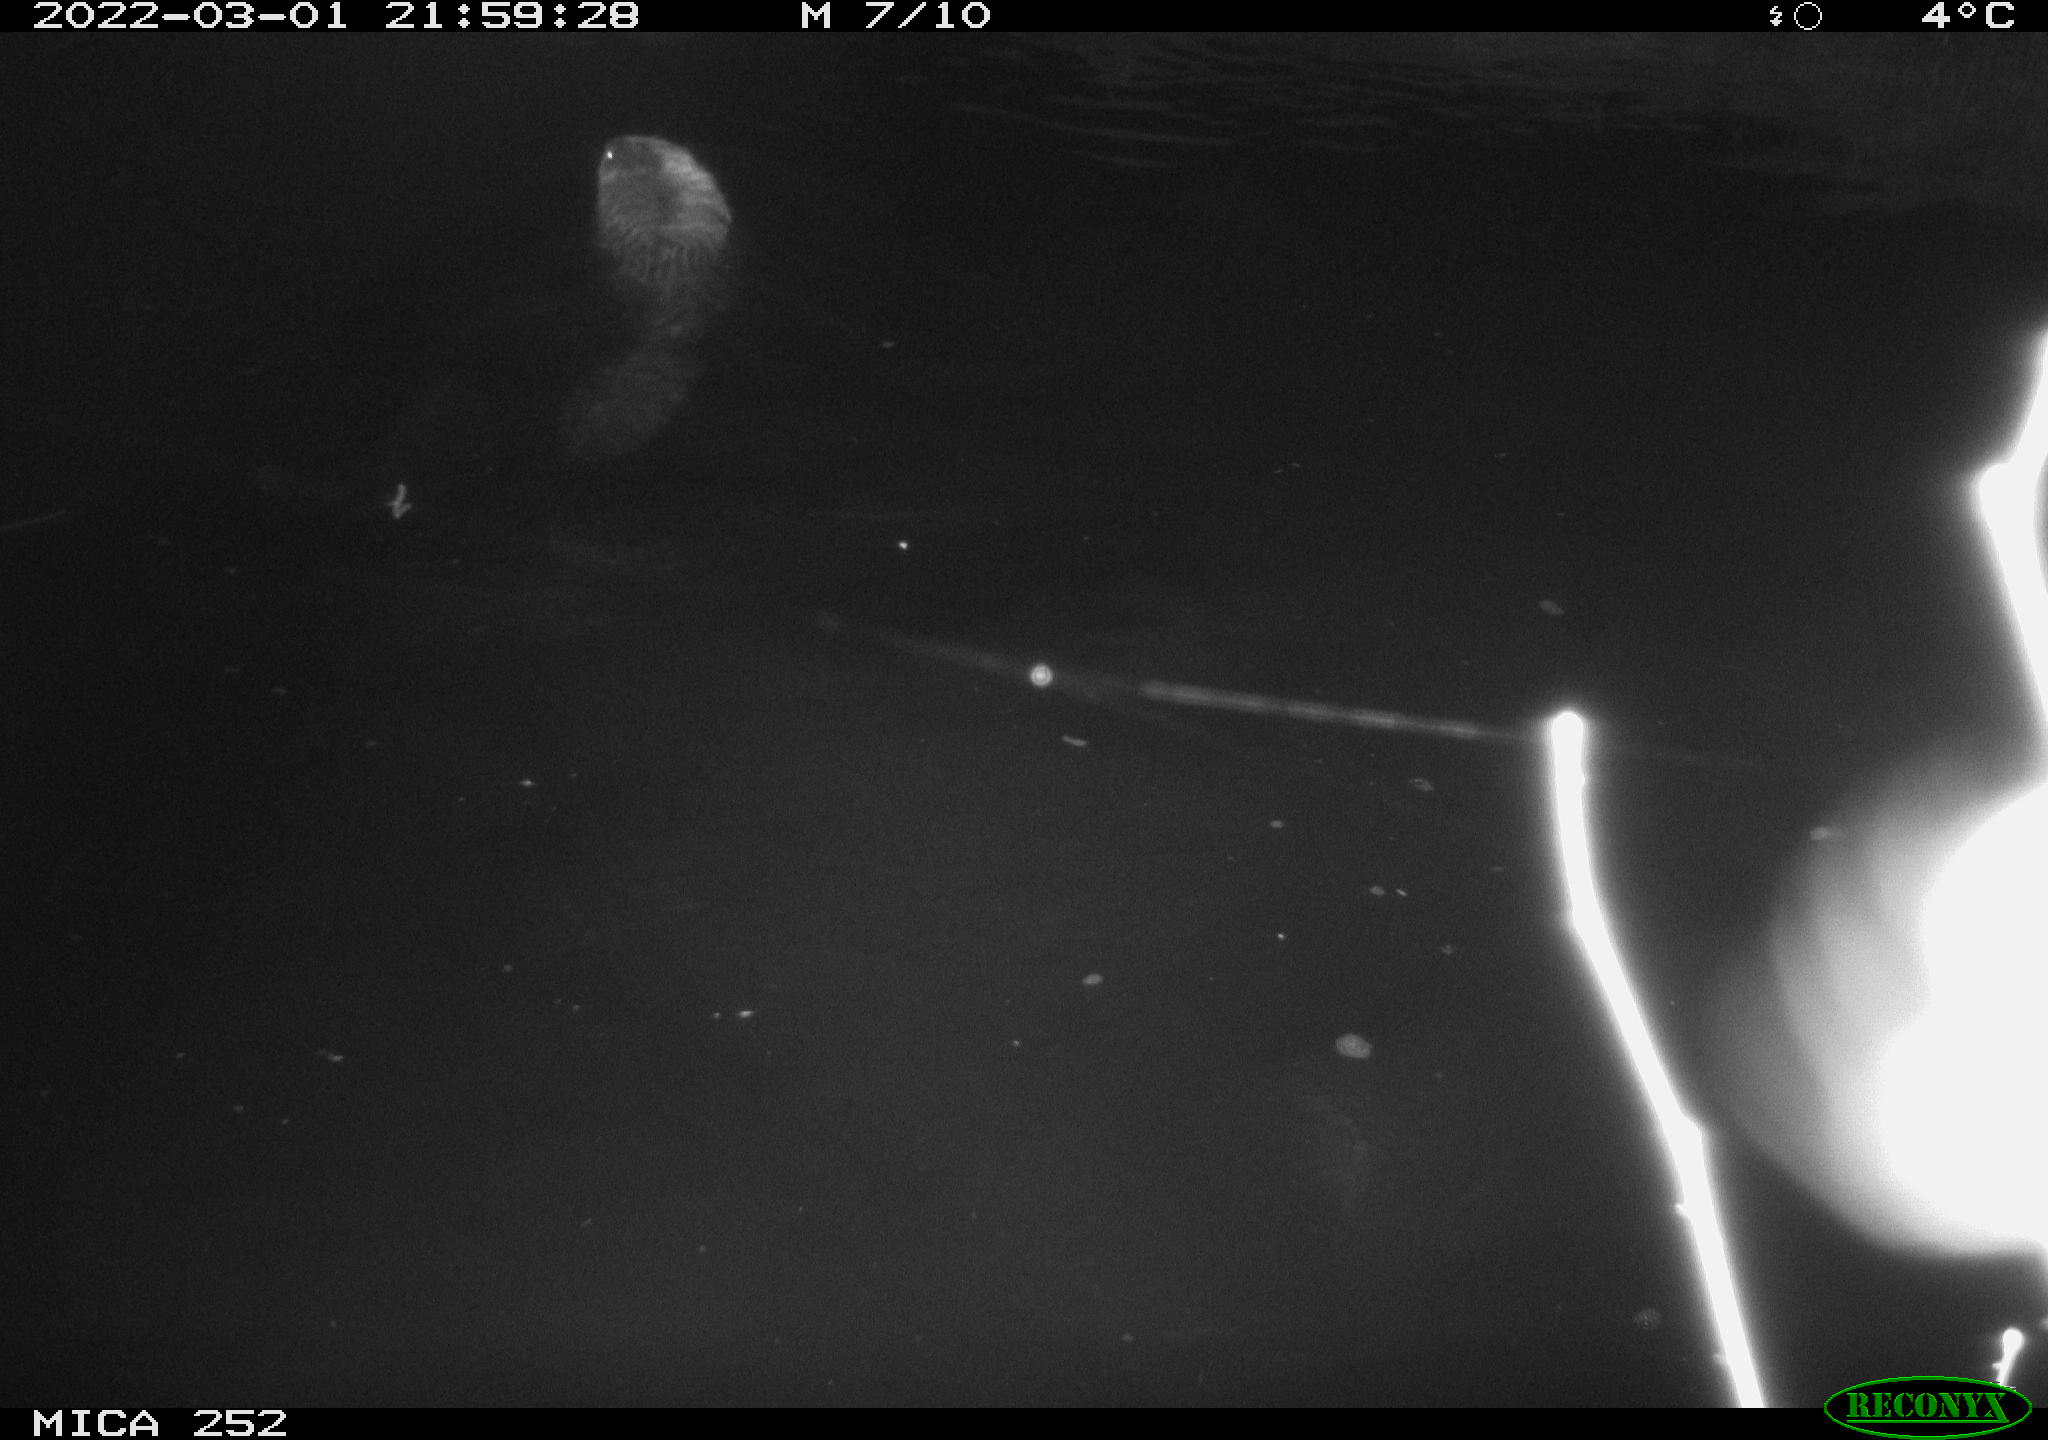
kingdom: Animalia
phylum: Chordata
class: Mammalia
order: Rodentia
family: Castoridae
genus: Castor
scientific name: Castor fiber
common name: Eurasian beaver
